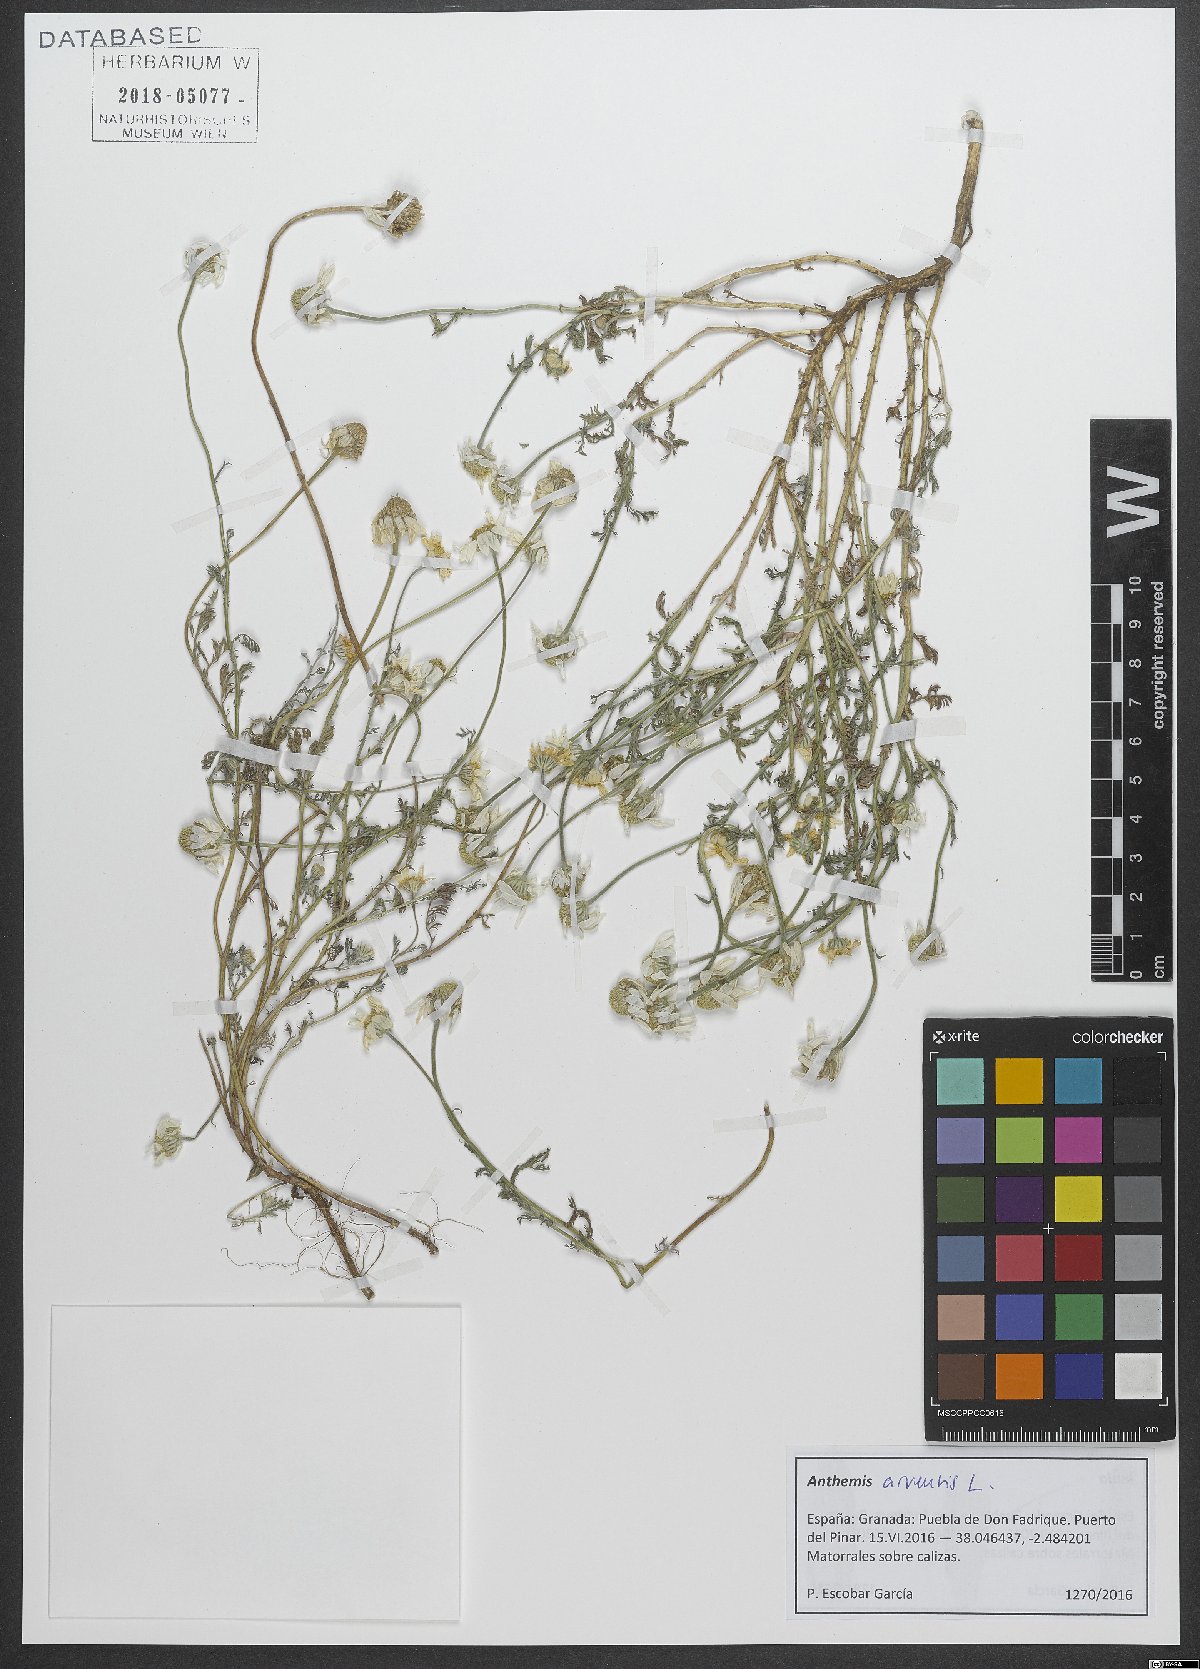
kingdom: Plantae
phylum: Tracheophyta
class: Magnoliopsida
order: Asterales
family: Asteraceae
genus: Anthemis
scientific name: Anthemis arvensis
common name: Corn chamomile
